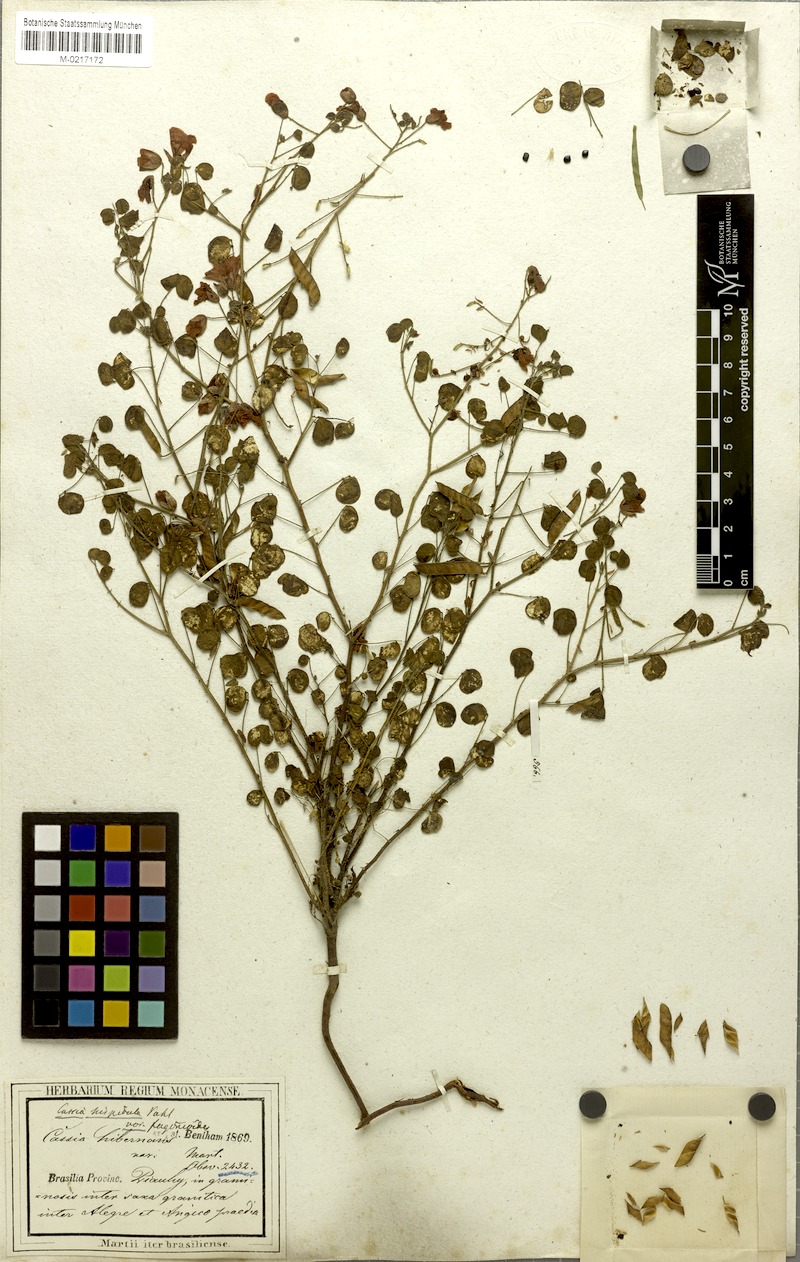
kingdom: Plantae
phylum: Tracheophyta
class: Magnoliopsida
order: Fabales
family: Fabaceae
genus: Chamaecrista
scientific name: Chamaecrista fagonioides
